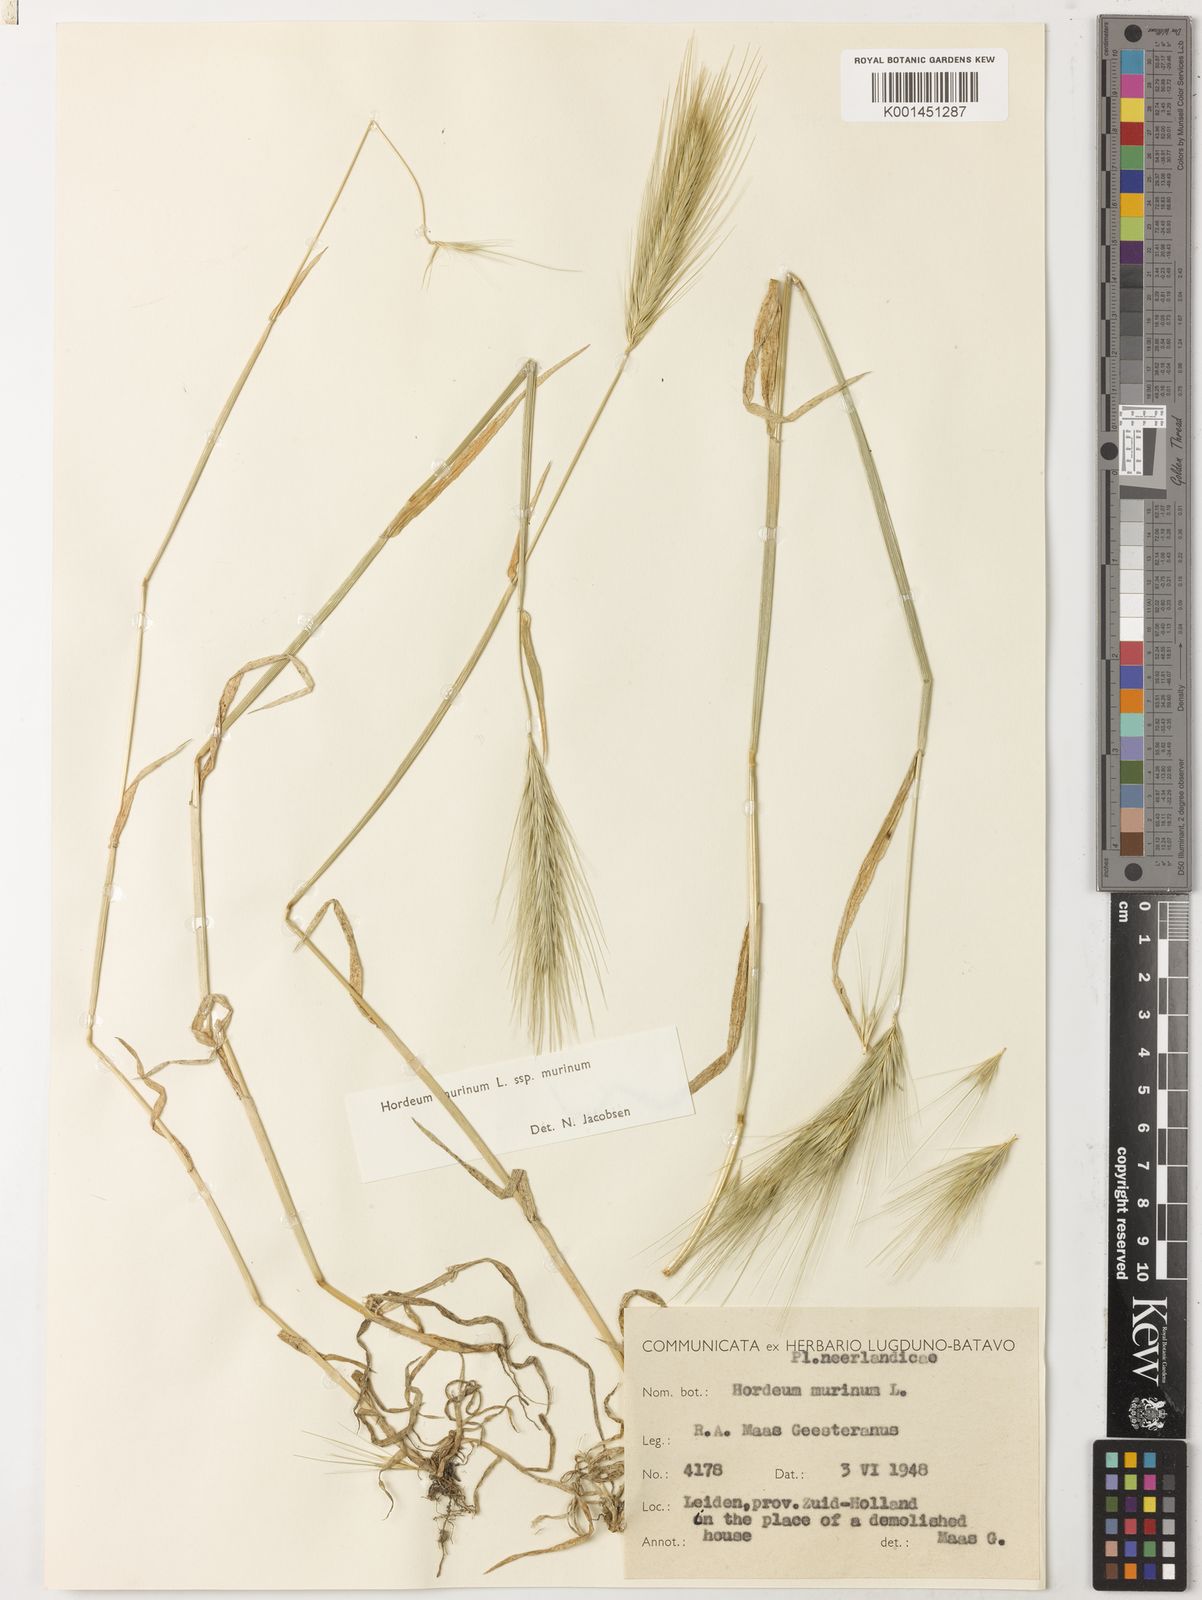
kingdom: Plantae
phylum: Tracheophyta
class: Liliopsida
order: Poales
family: Poaceae
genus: Hordeum
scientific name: Hordeum murinum
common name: Wall barley
